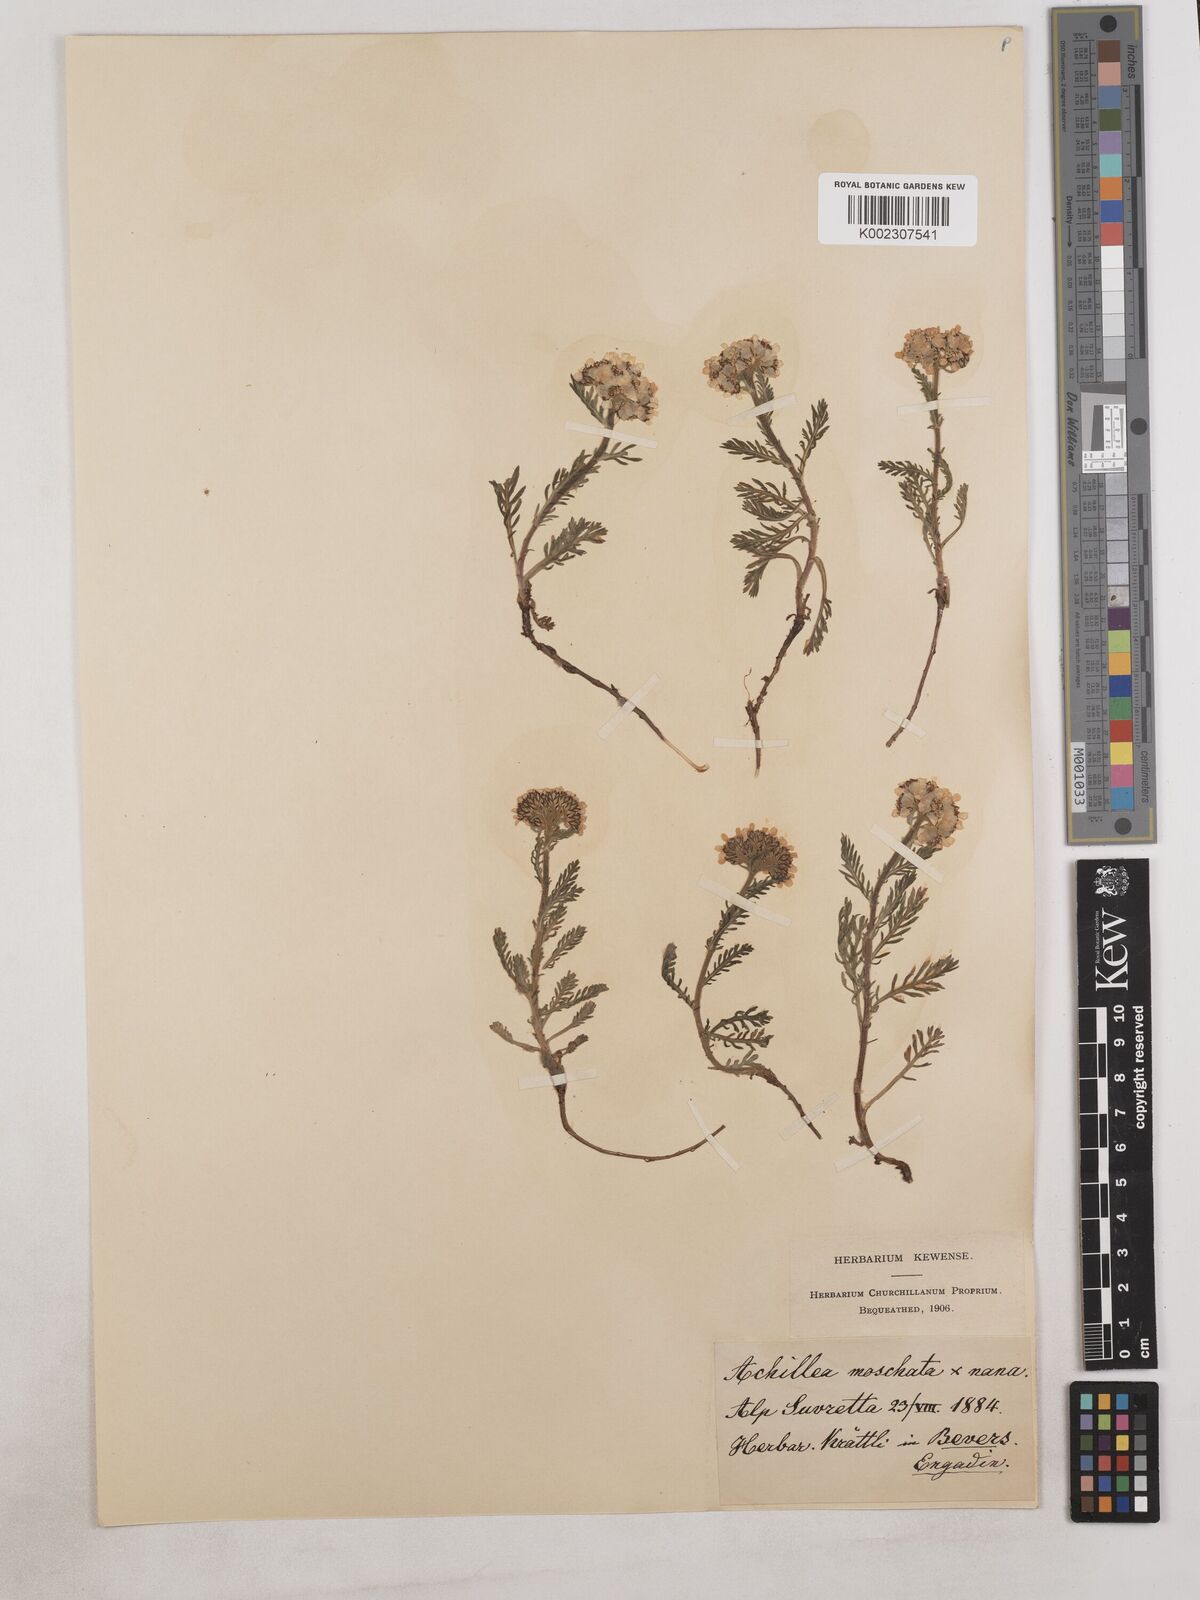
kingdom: Plantae
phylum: Tracheophyta
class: Magnoliopsida
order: Asterales
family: Asteraceae
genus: Achillea
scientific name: Achillea erba-rotta
